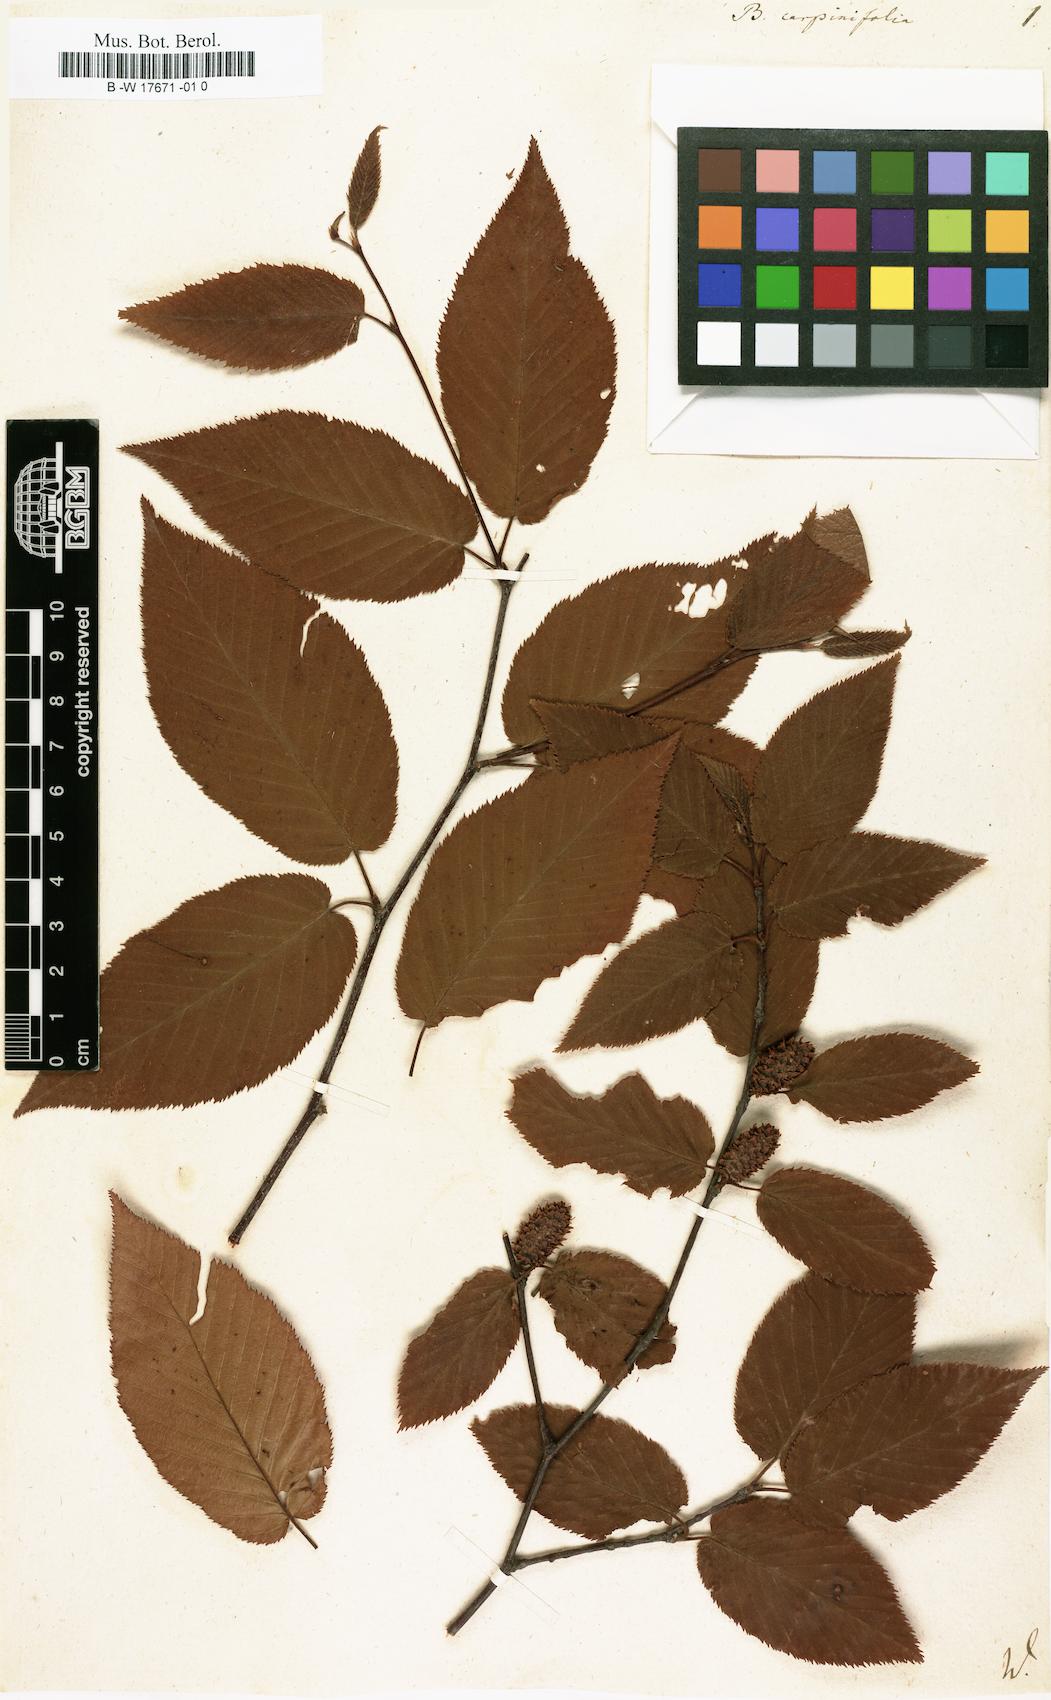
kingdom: Plantae
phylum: Tracheophyta
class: Magnoliopsida
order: Fagales
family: Betulaceae
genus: Betula
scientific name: Betula lenta
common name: Black birch
